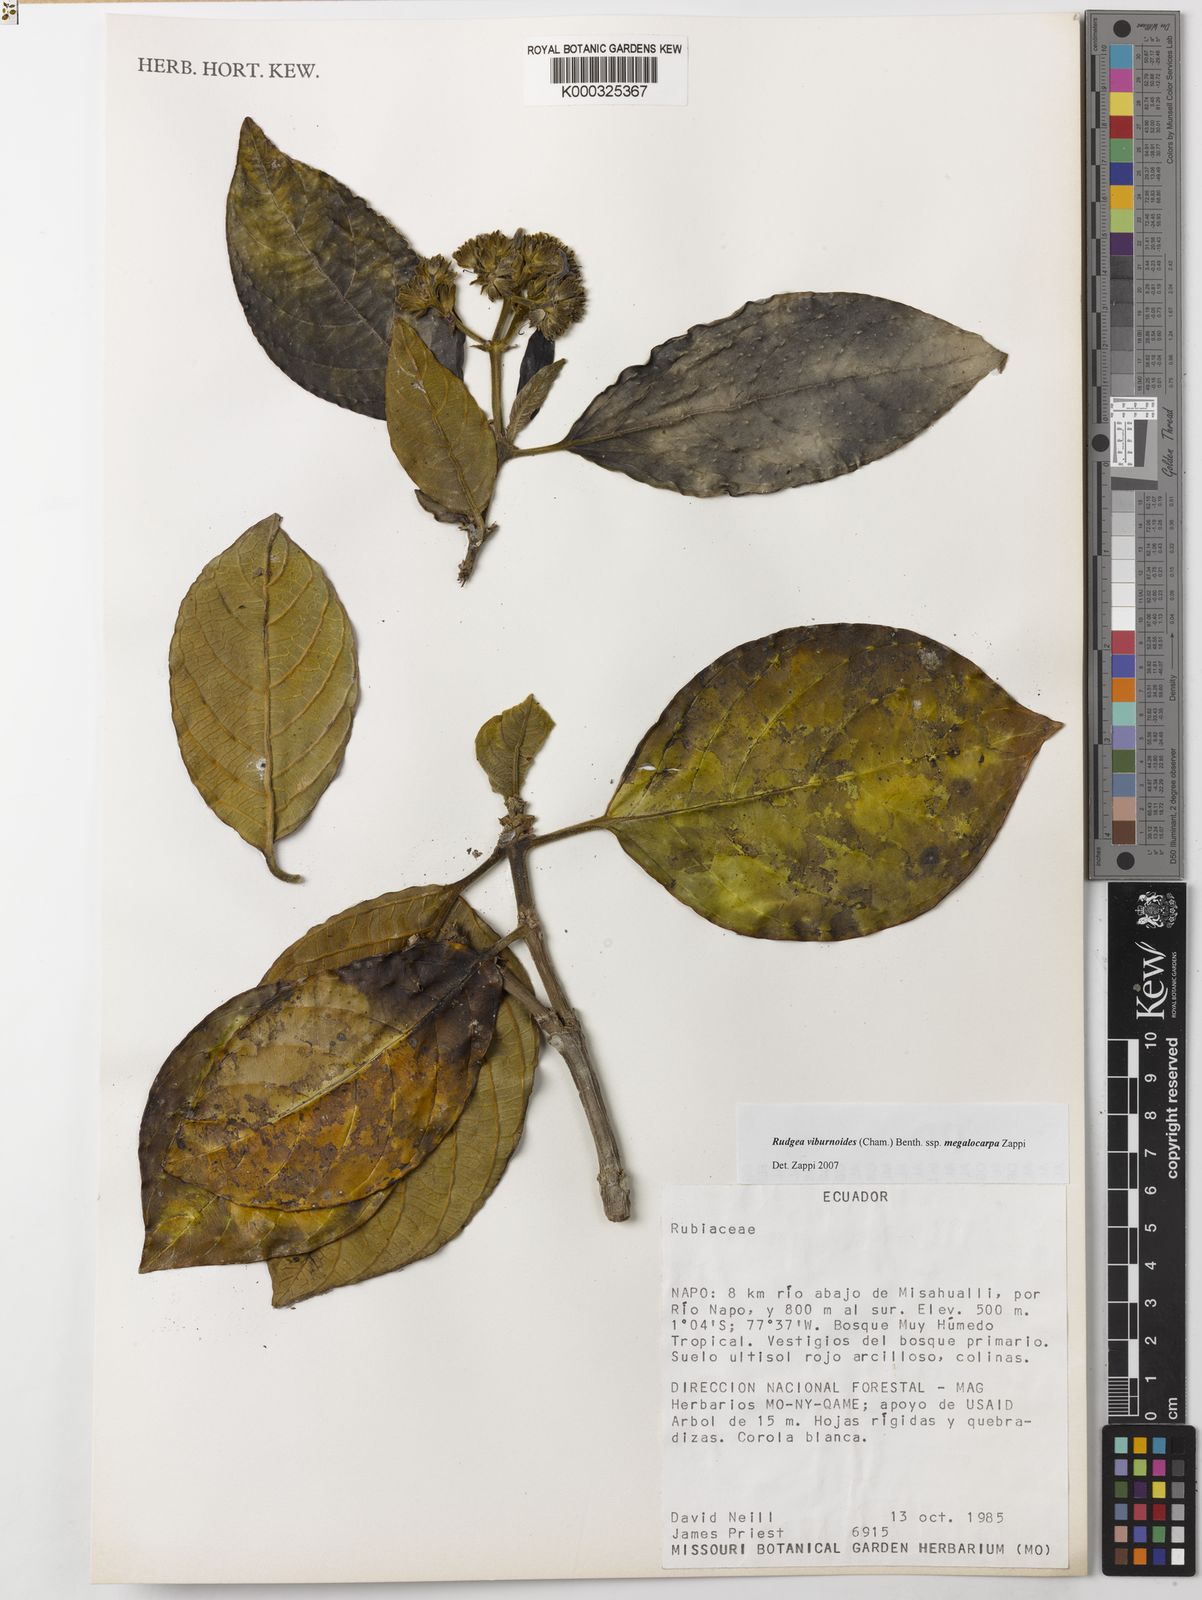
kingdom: Plantae
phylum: Tracheophyta
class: Magnoliopsida
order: Gentianales
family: Rubiaceae
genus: Rudgea
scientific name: Rudgea viburnoides
